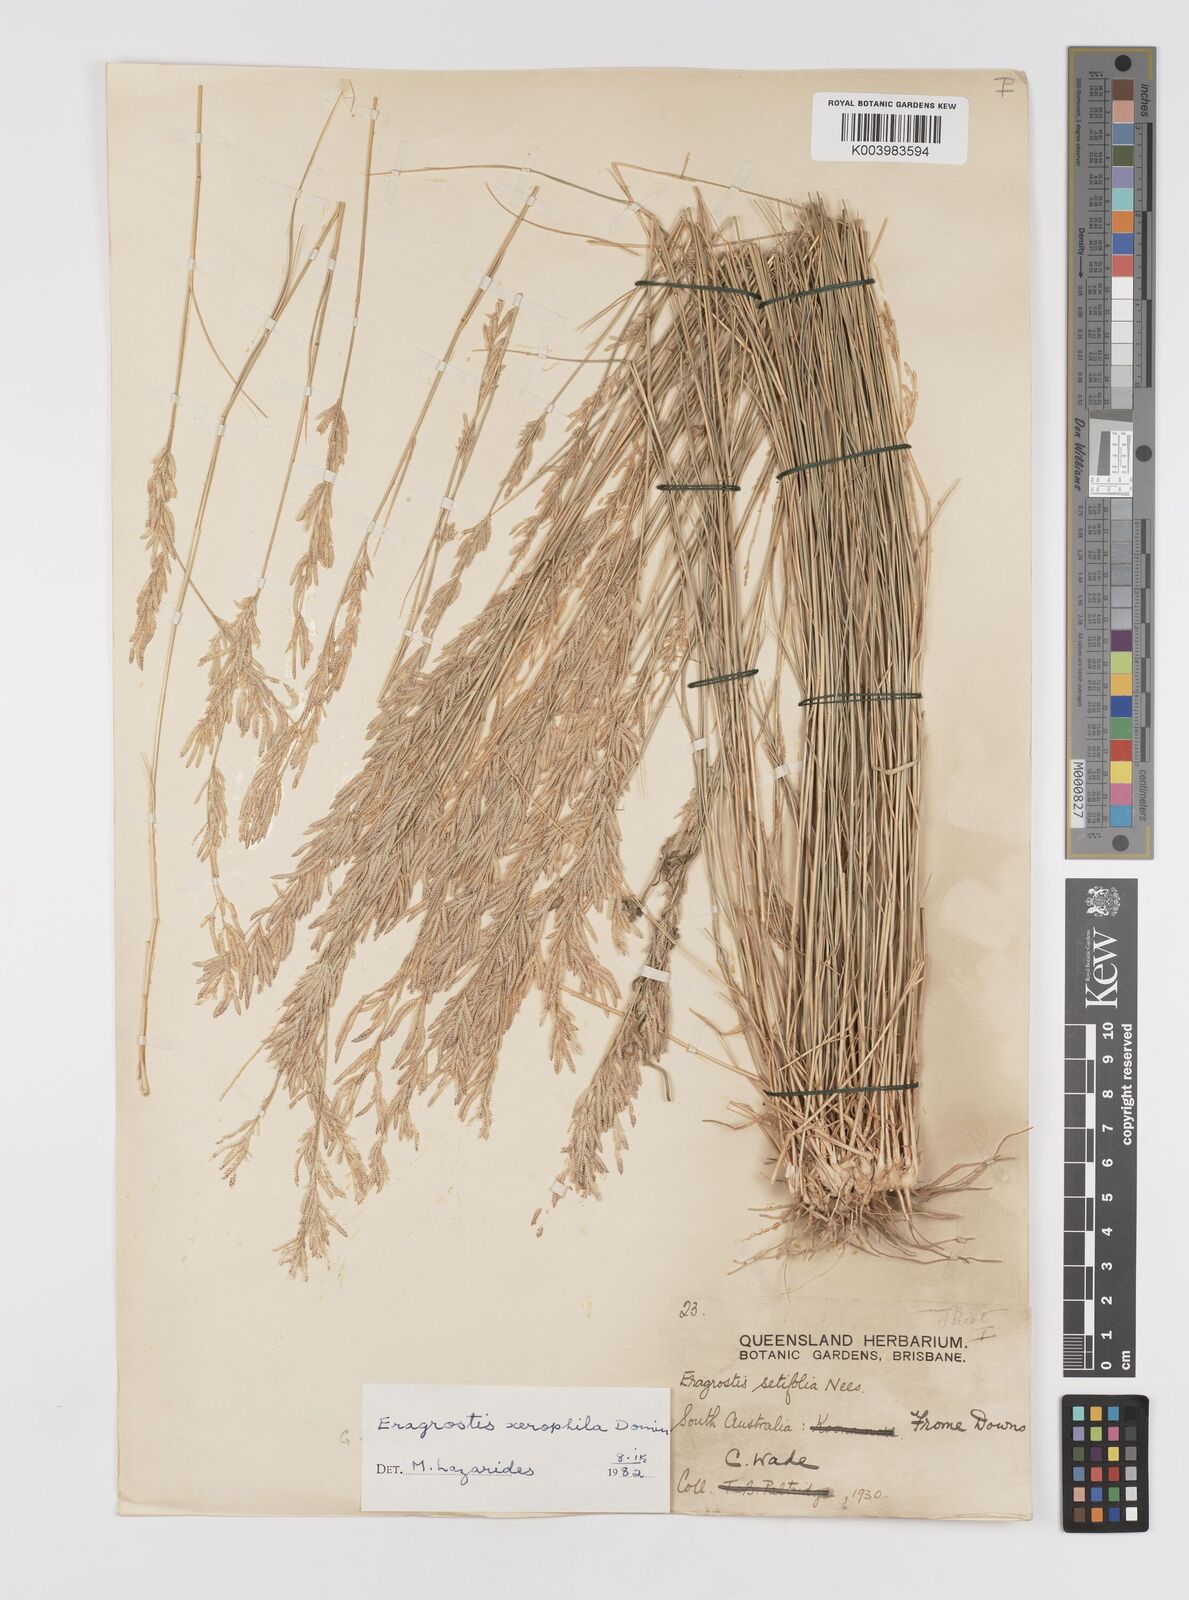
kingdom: Plantae
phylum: Tracheophyta
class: Liliopsida
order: Poales
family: Poaceae
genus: Eragrostis
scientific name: Eragrostis xerophila
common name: Wire wandarrie grass
